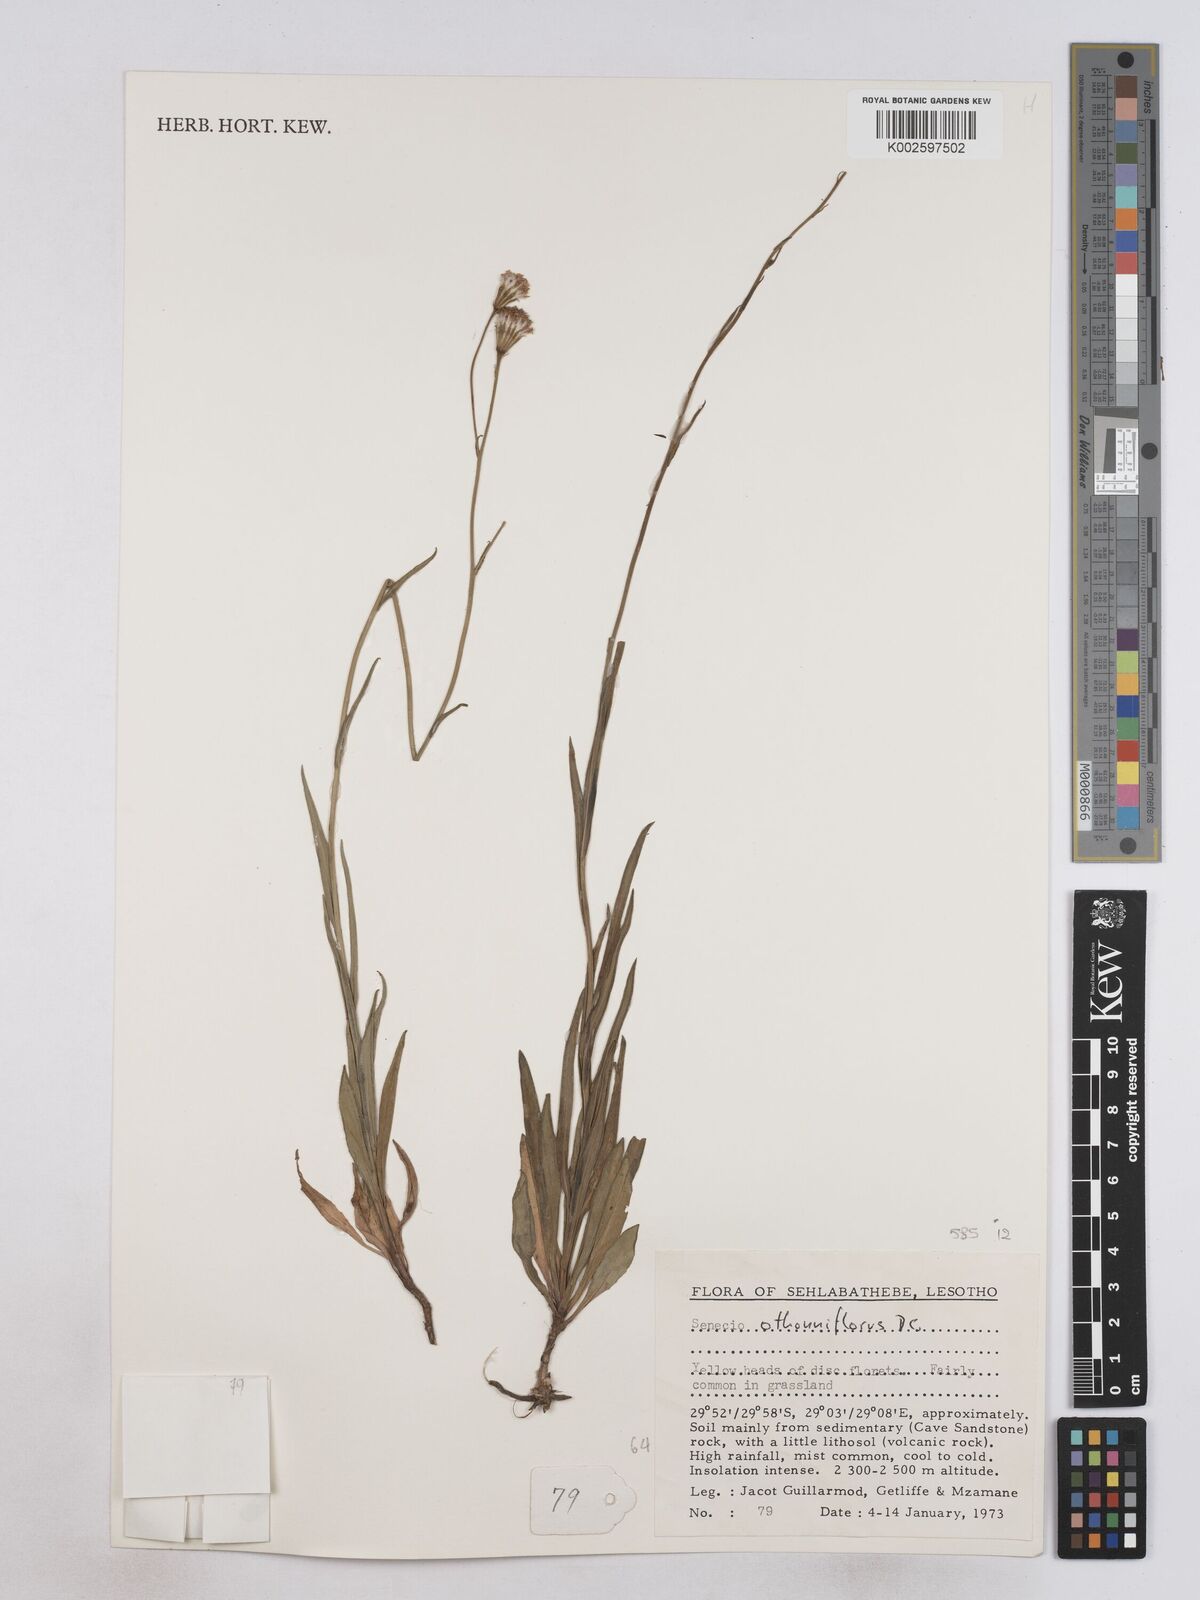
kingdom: Plantae
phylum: Tracheophyta
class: Magnoliopsida
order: Asterales
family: Asteraceae
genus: Senecio
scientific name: Senecio othonniflorus
